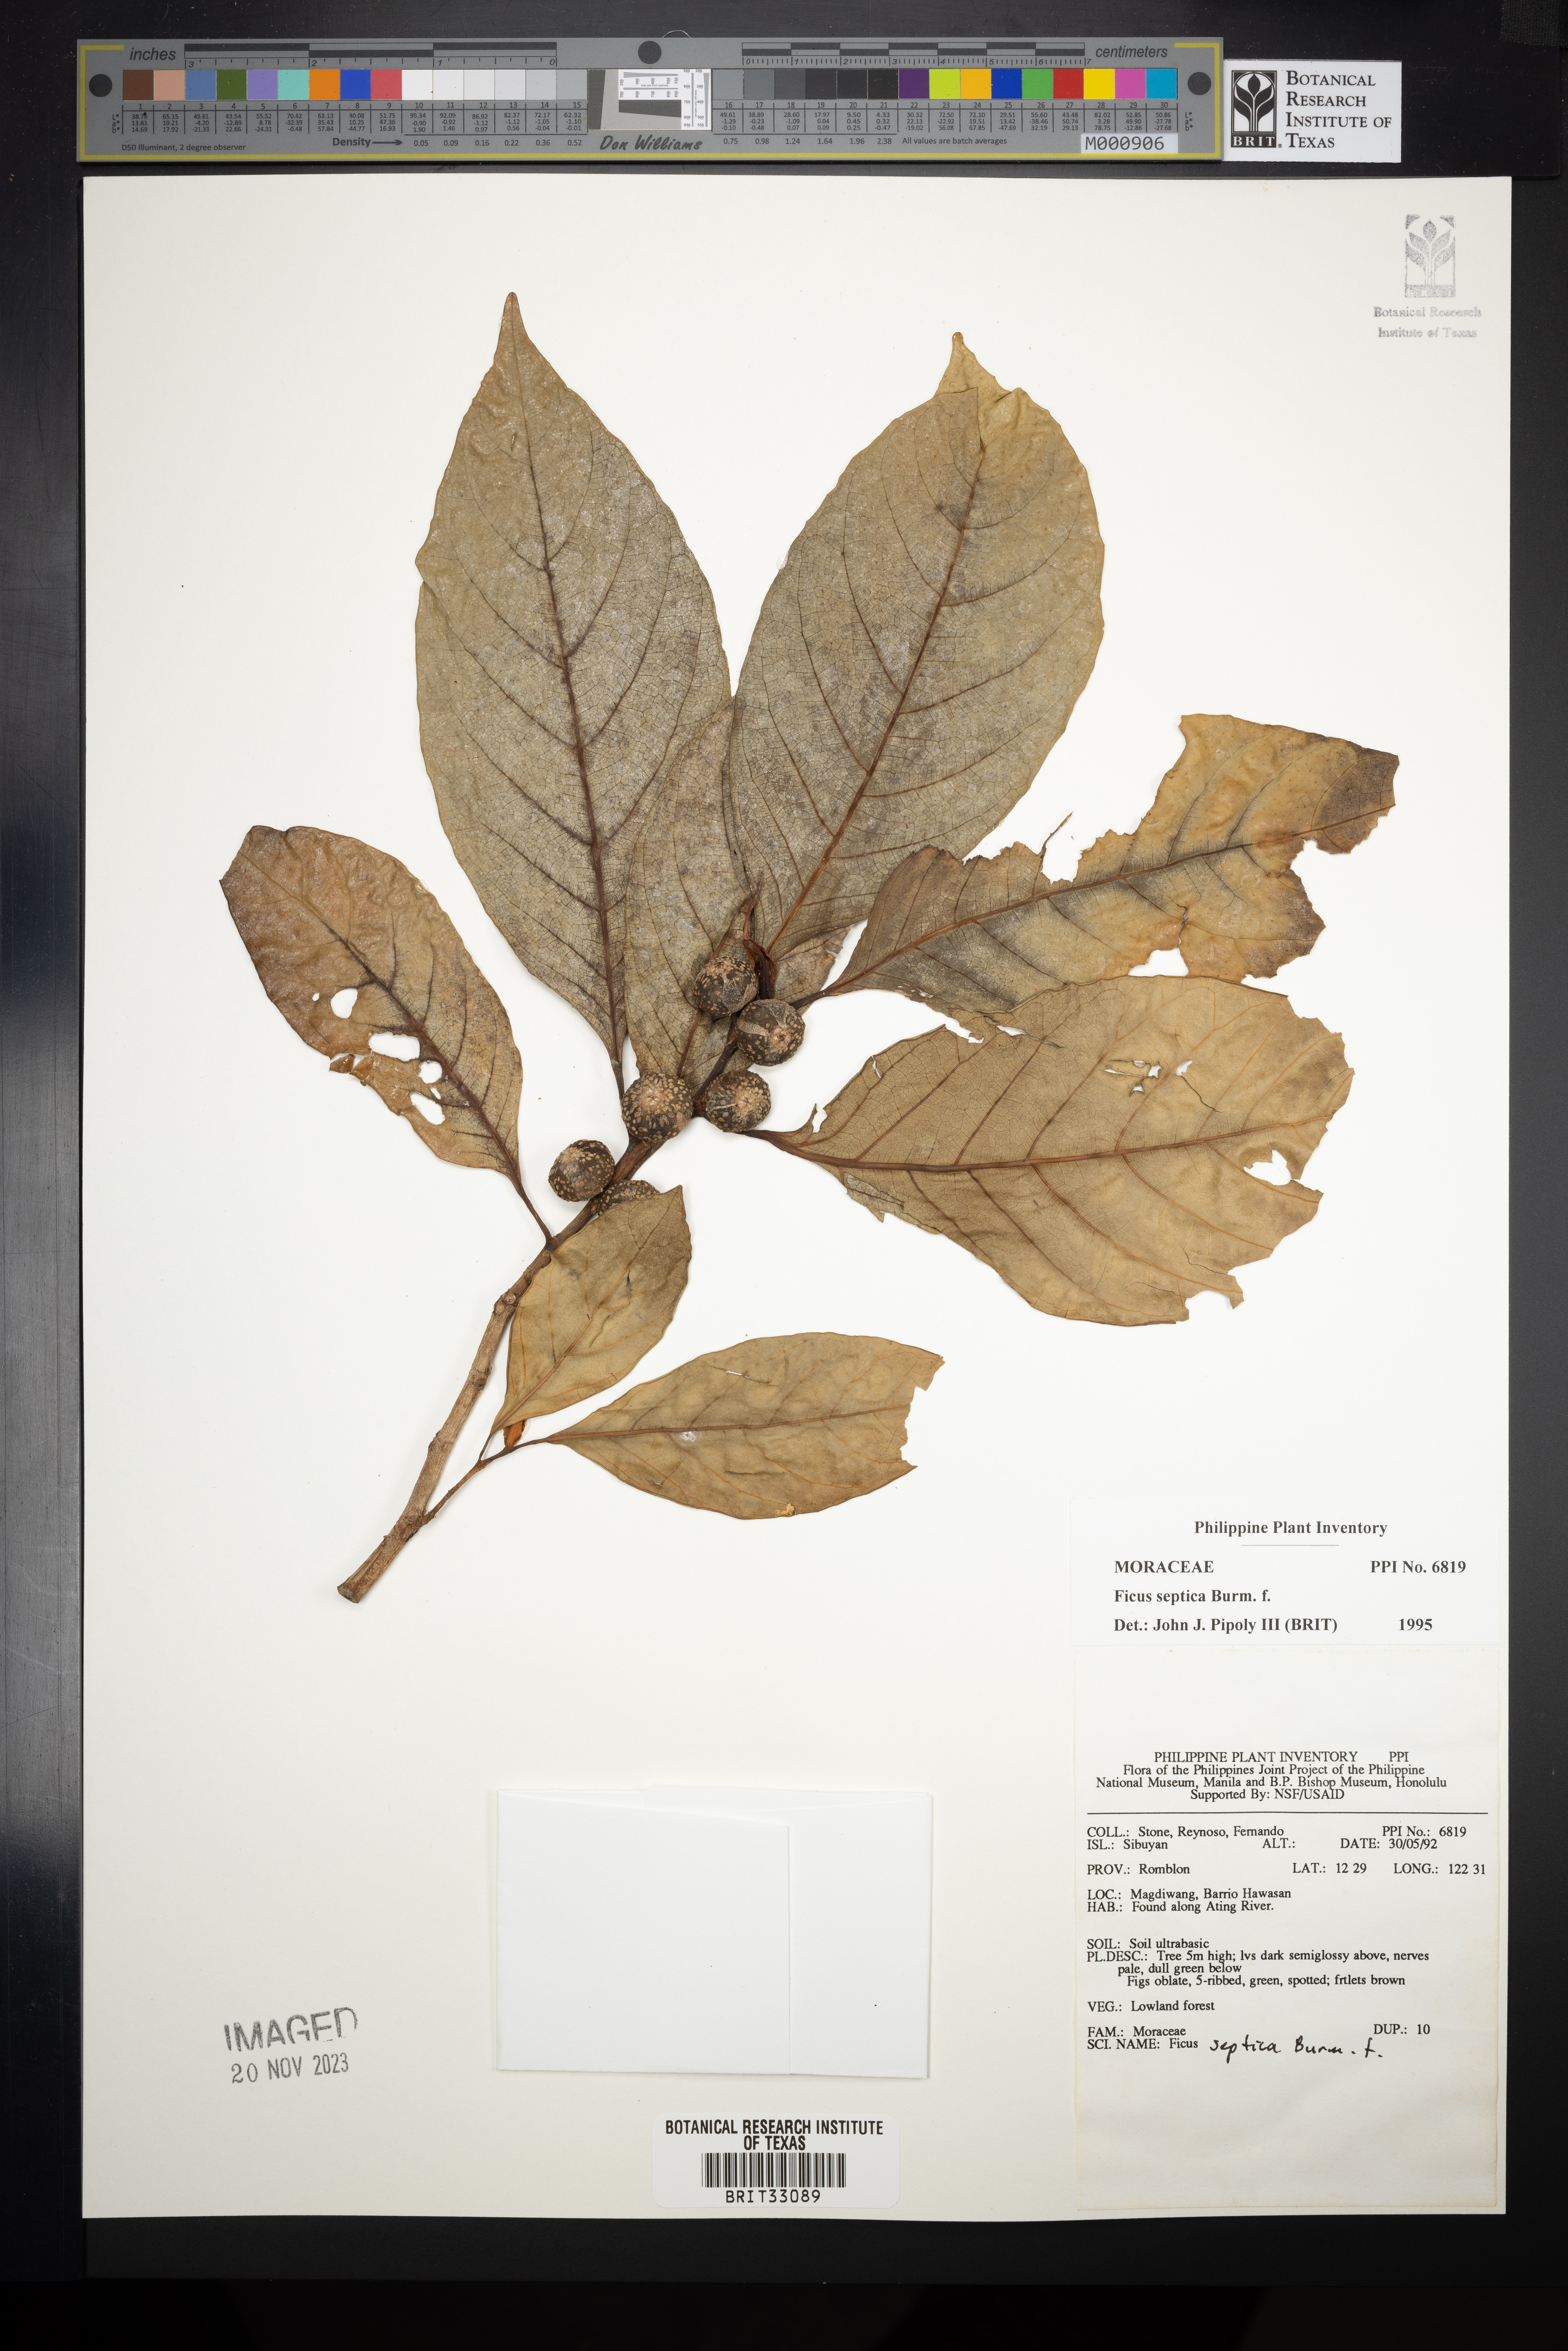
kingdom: Plantae
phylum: Tracheophyta
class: Magnoliopsida
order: Rosales
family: Moraceae
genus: Ficus
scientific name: Ficus septica
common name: Septic fig
